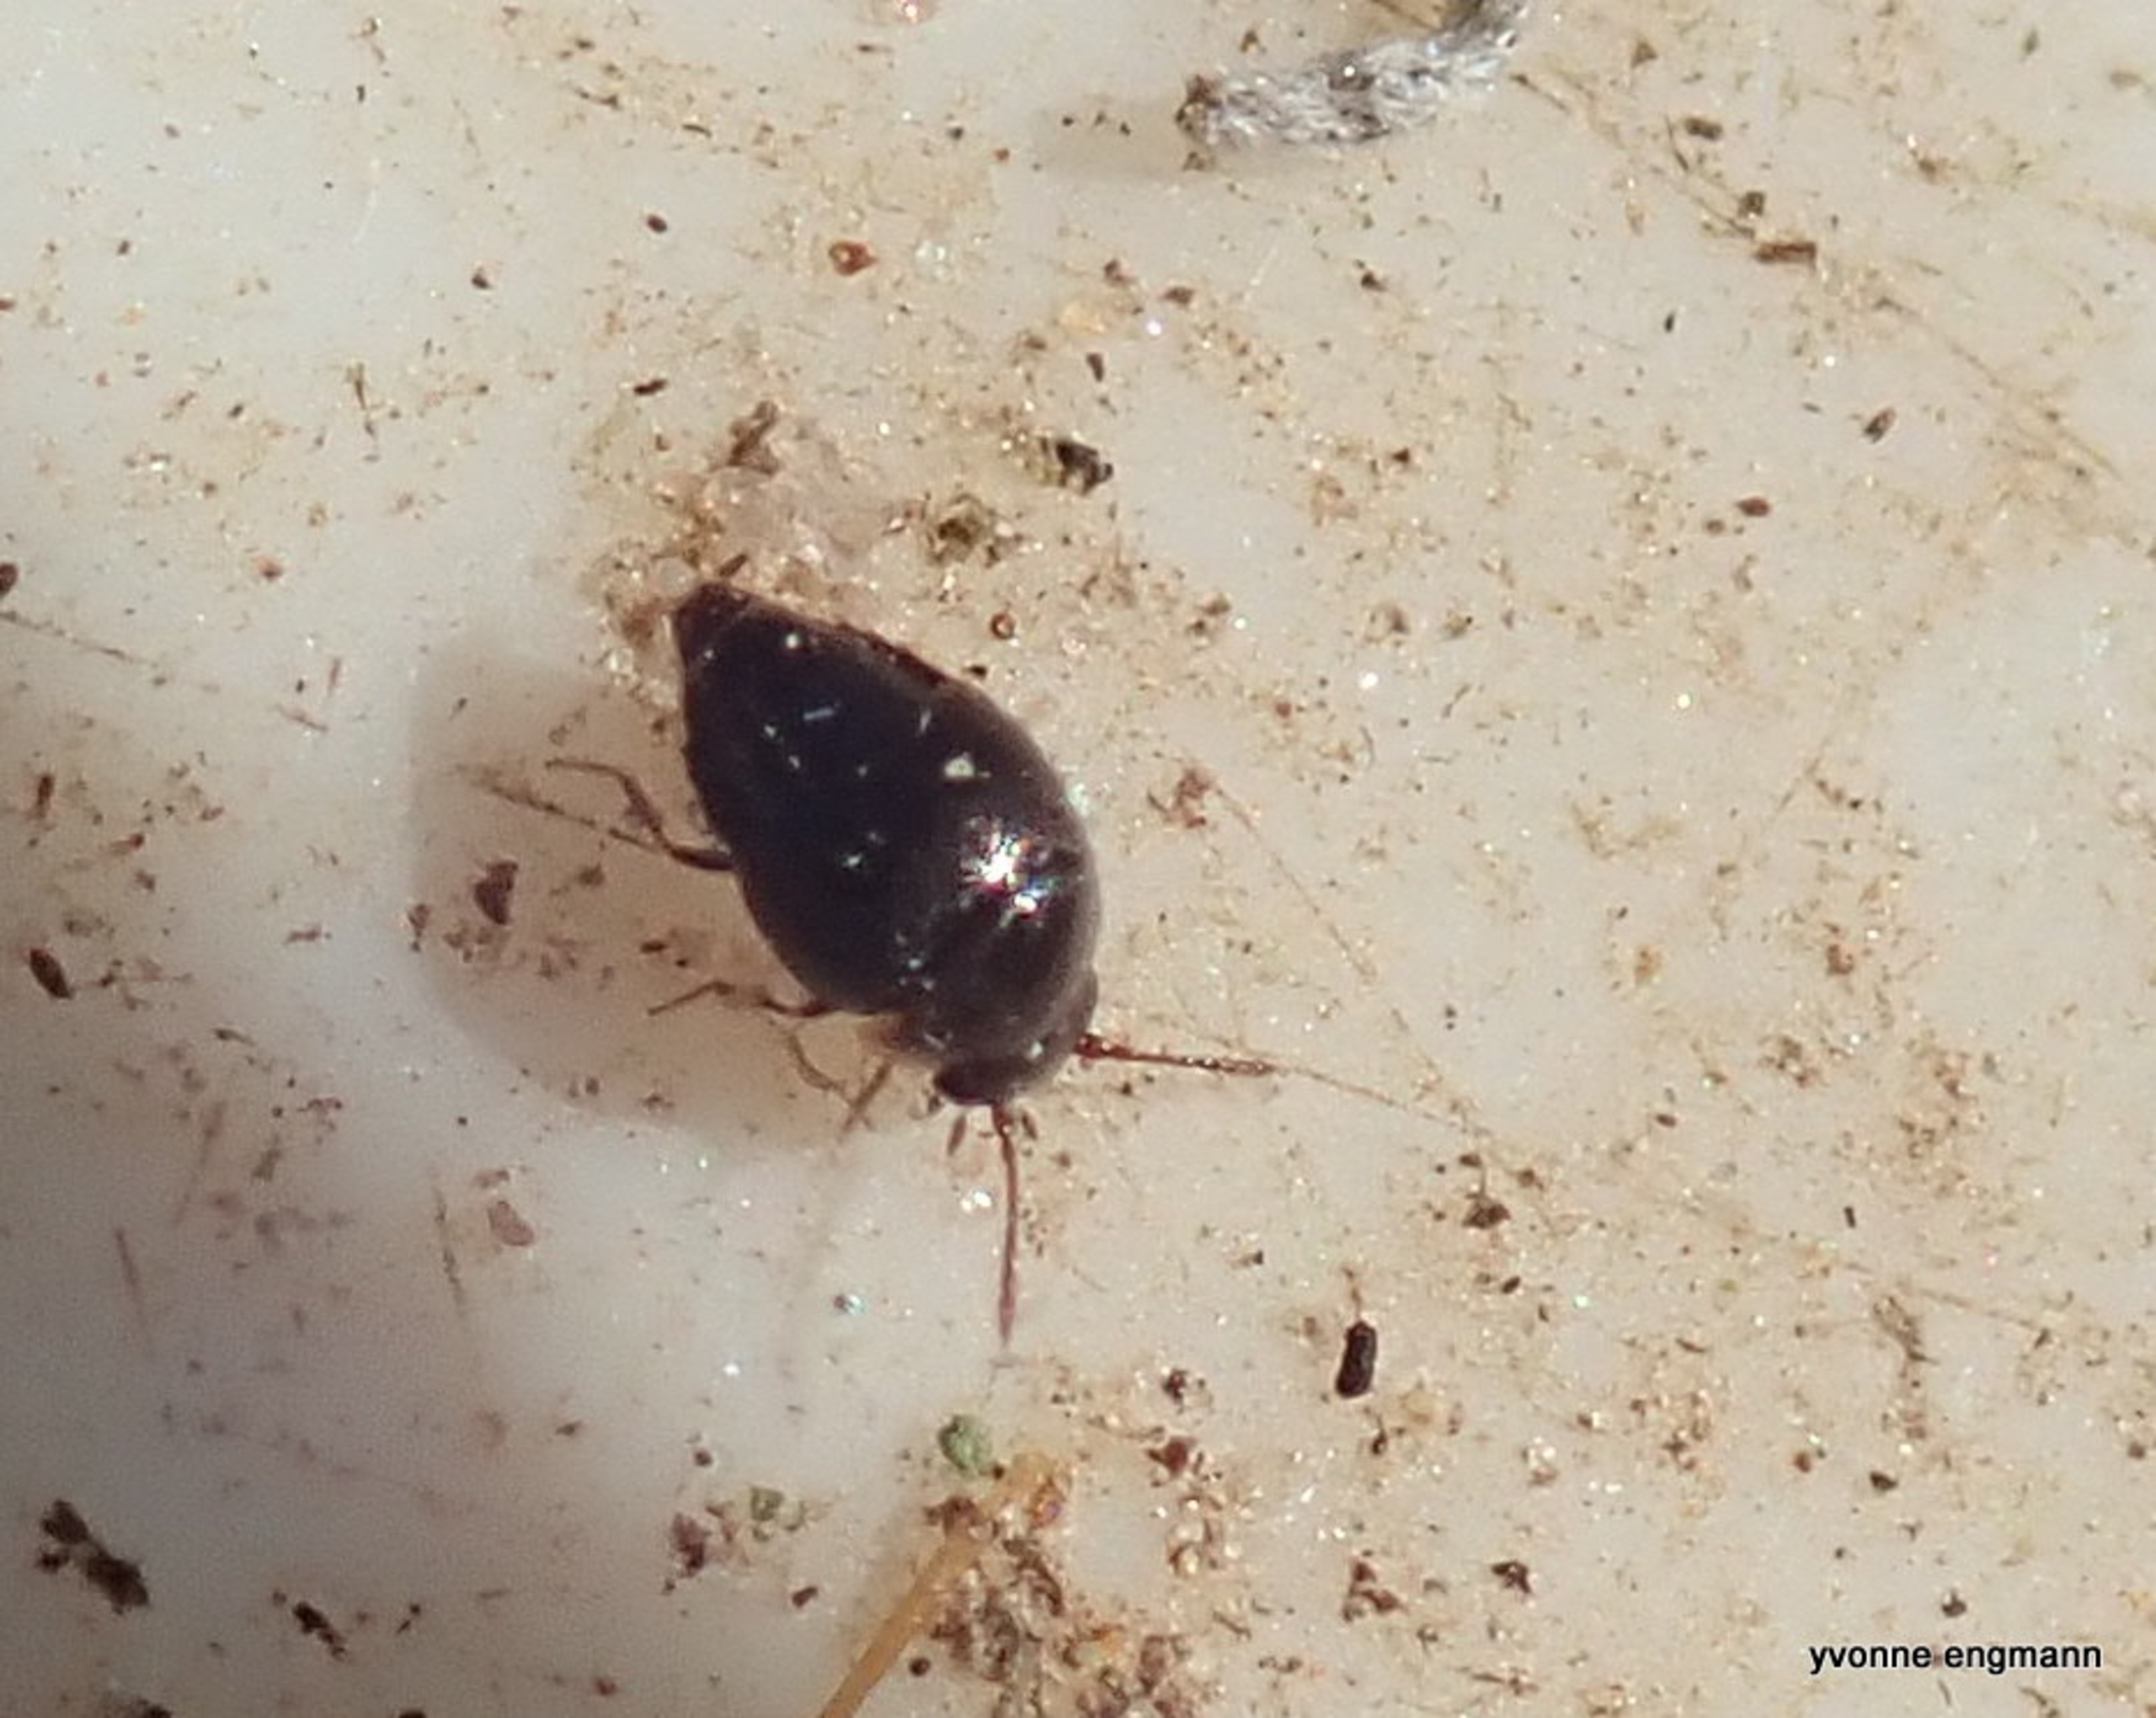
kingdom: Animalia
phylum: Arthropoda
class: Insecta
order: Coleoptera
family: Staphylinidae
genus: Cypha
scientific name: Cypha
